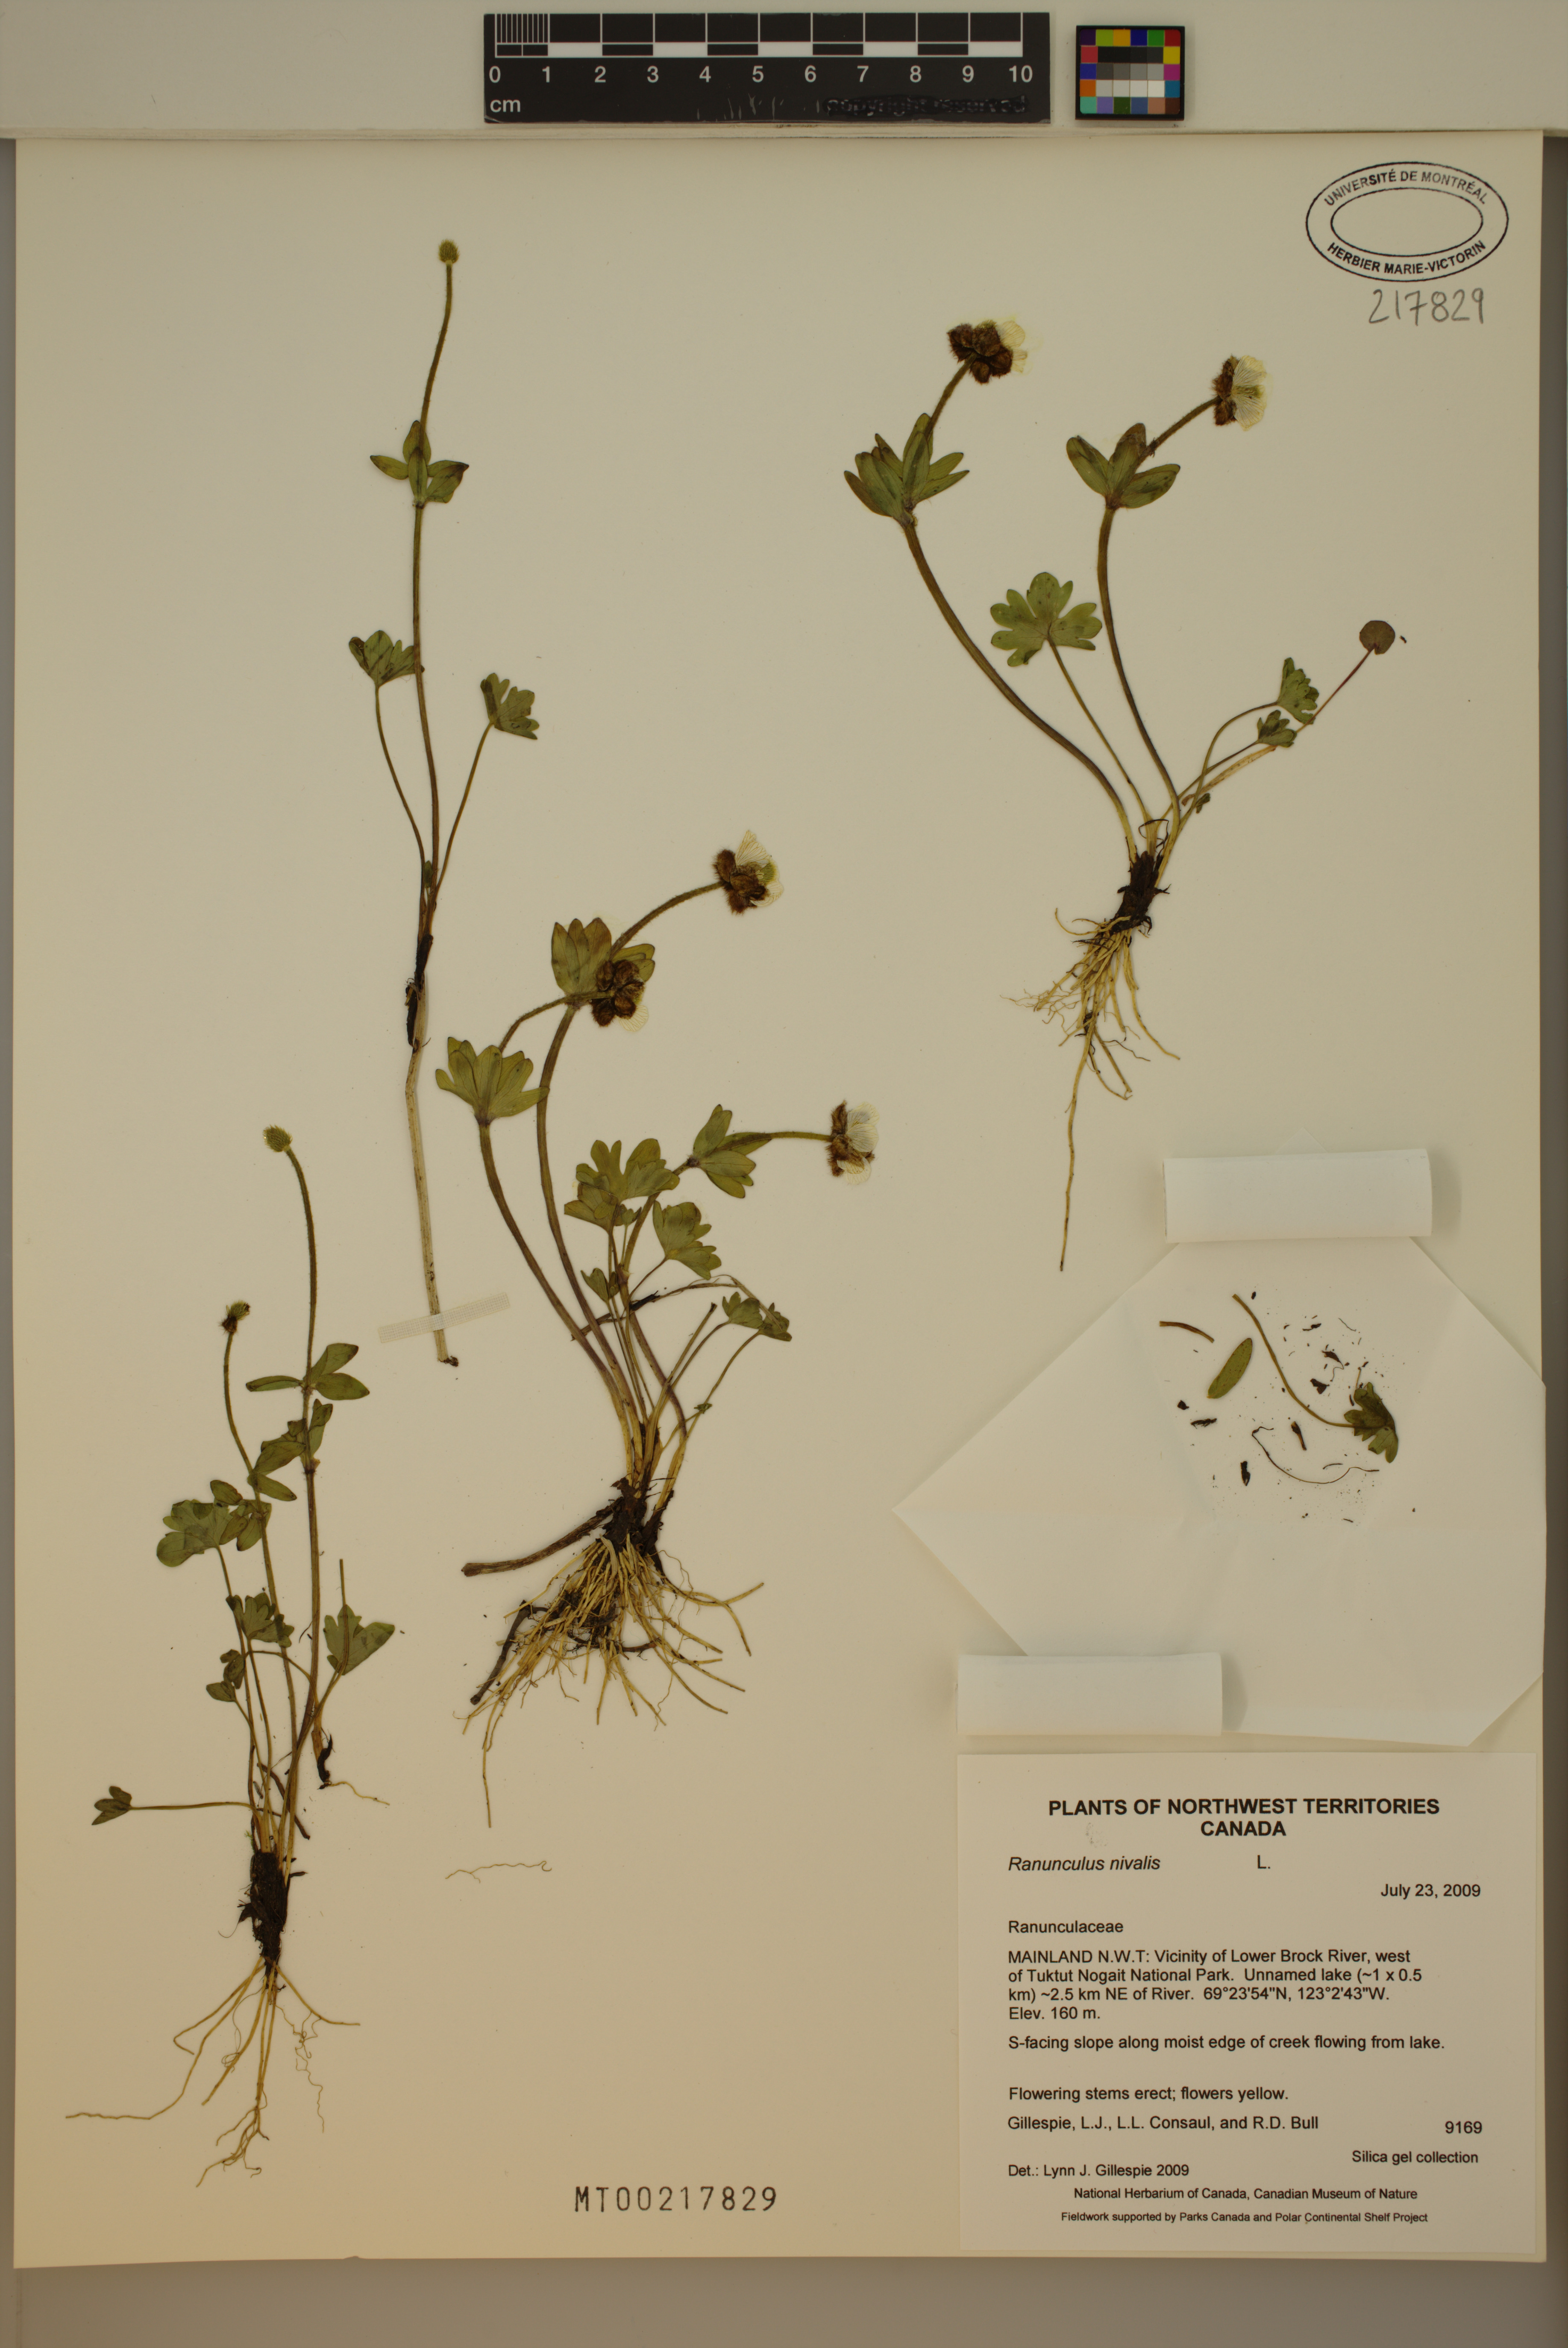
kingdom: Plantae
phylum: Tracheophyta
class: Magnoliopsida
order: Ranunculales
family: Ranunculaceae
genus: Ranunculus
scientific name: Ranunculus nivalis
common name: Snow buttercup
